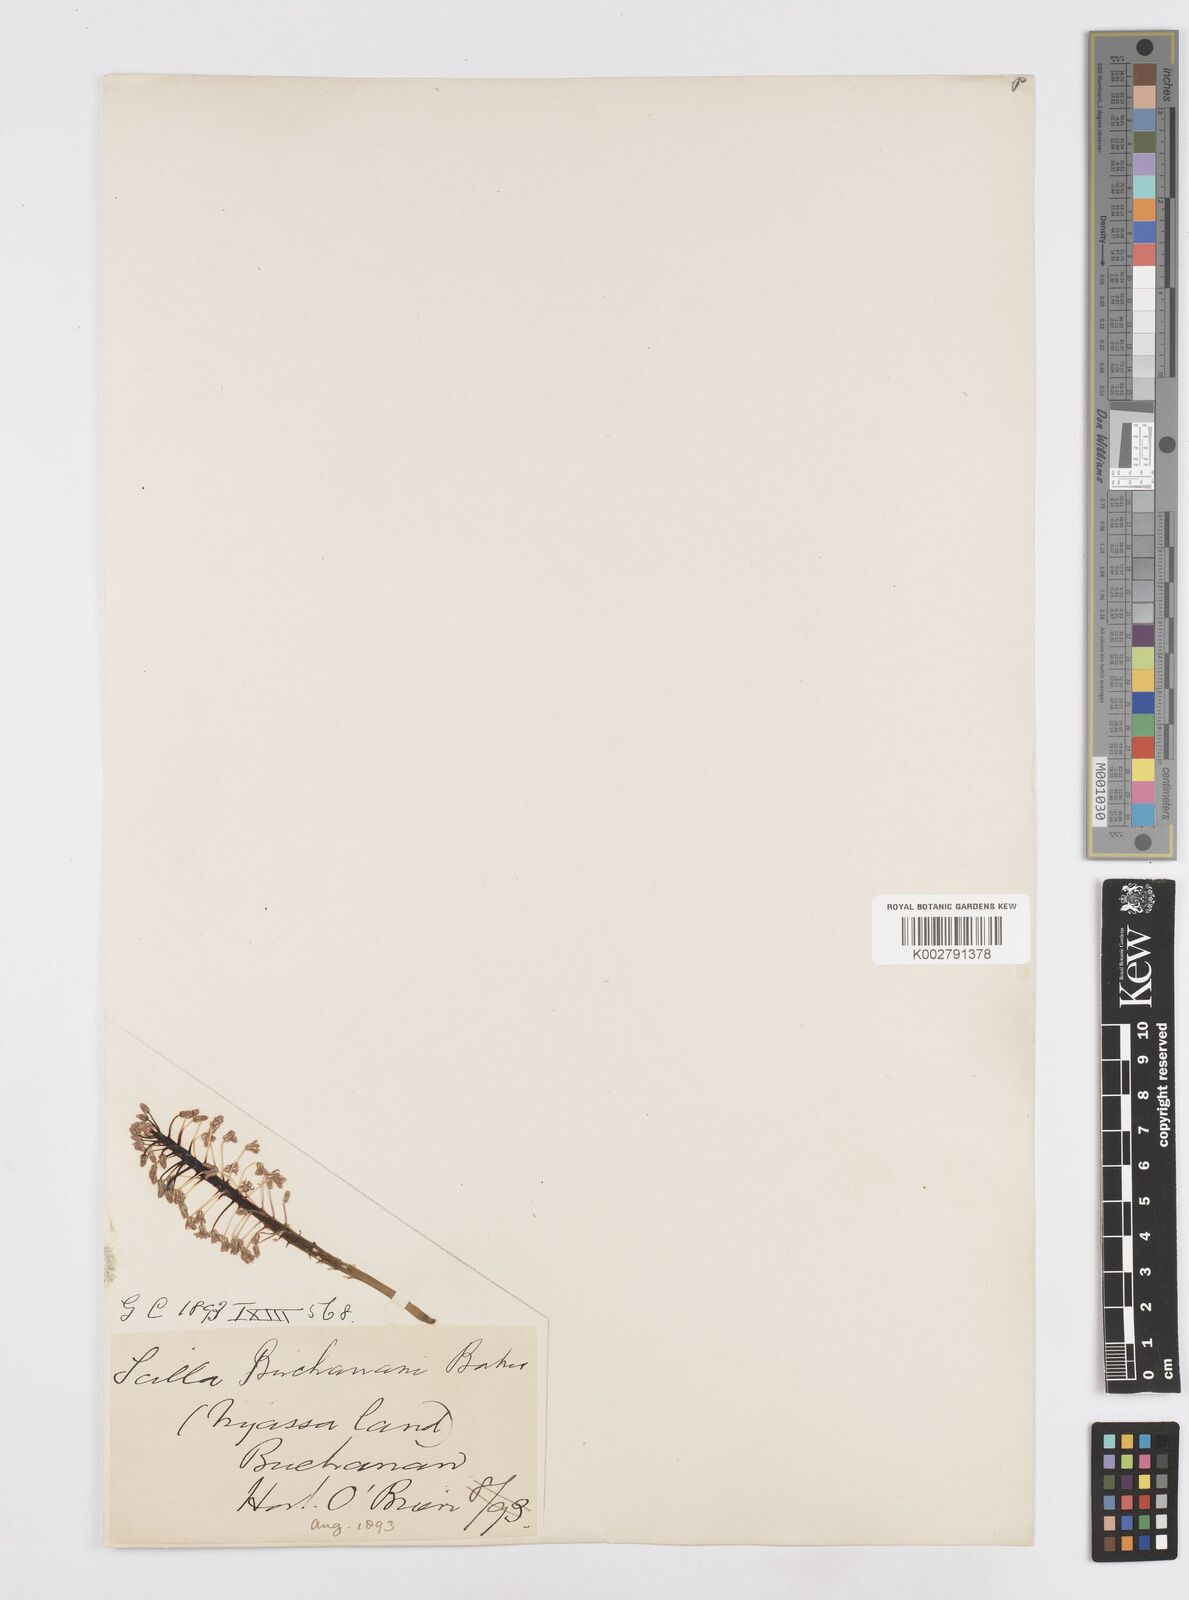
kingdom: Plantae
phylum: Tracheophyta
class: Liliopsida
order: Asparagales
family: Asparagaceae
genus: Scilla
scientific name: Scilla buchananii
